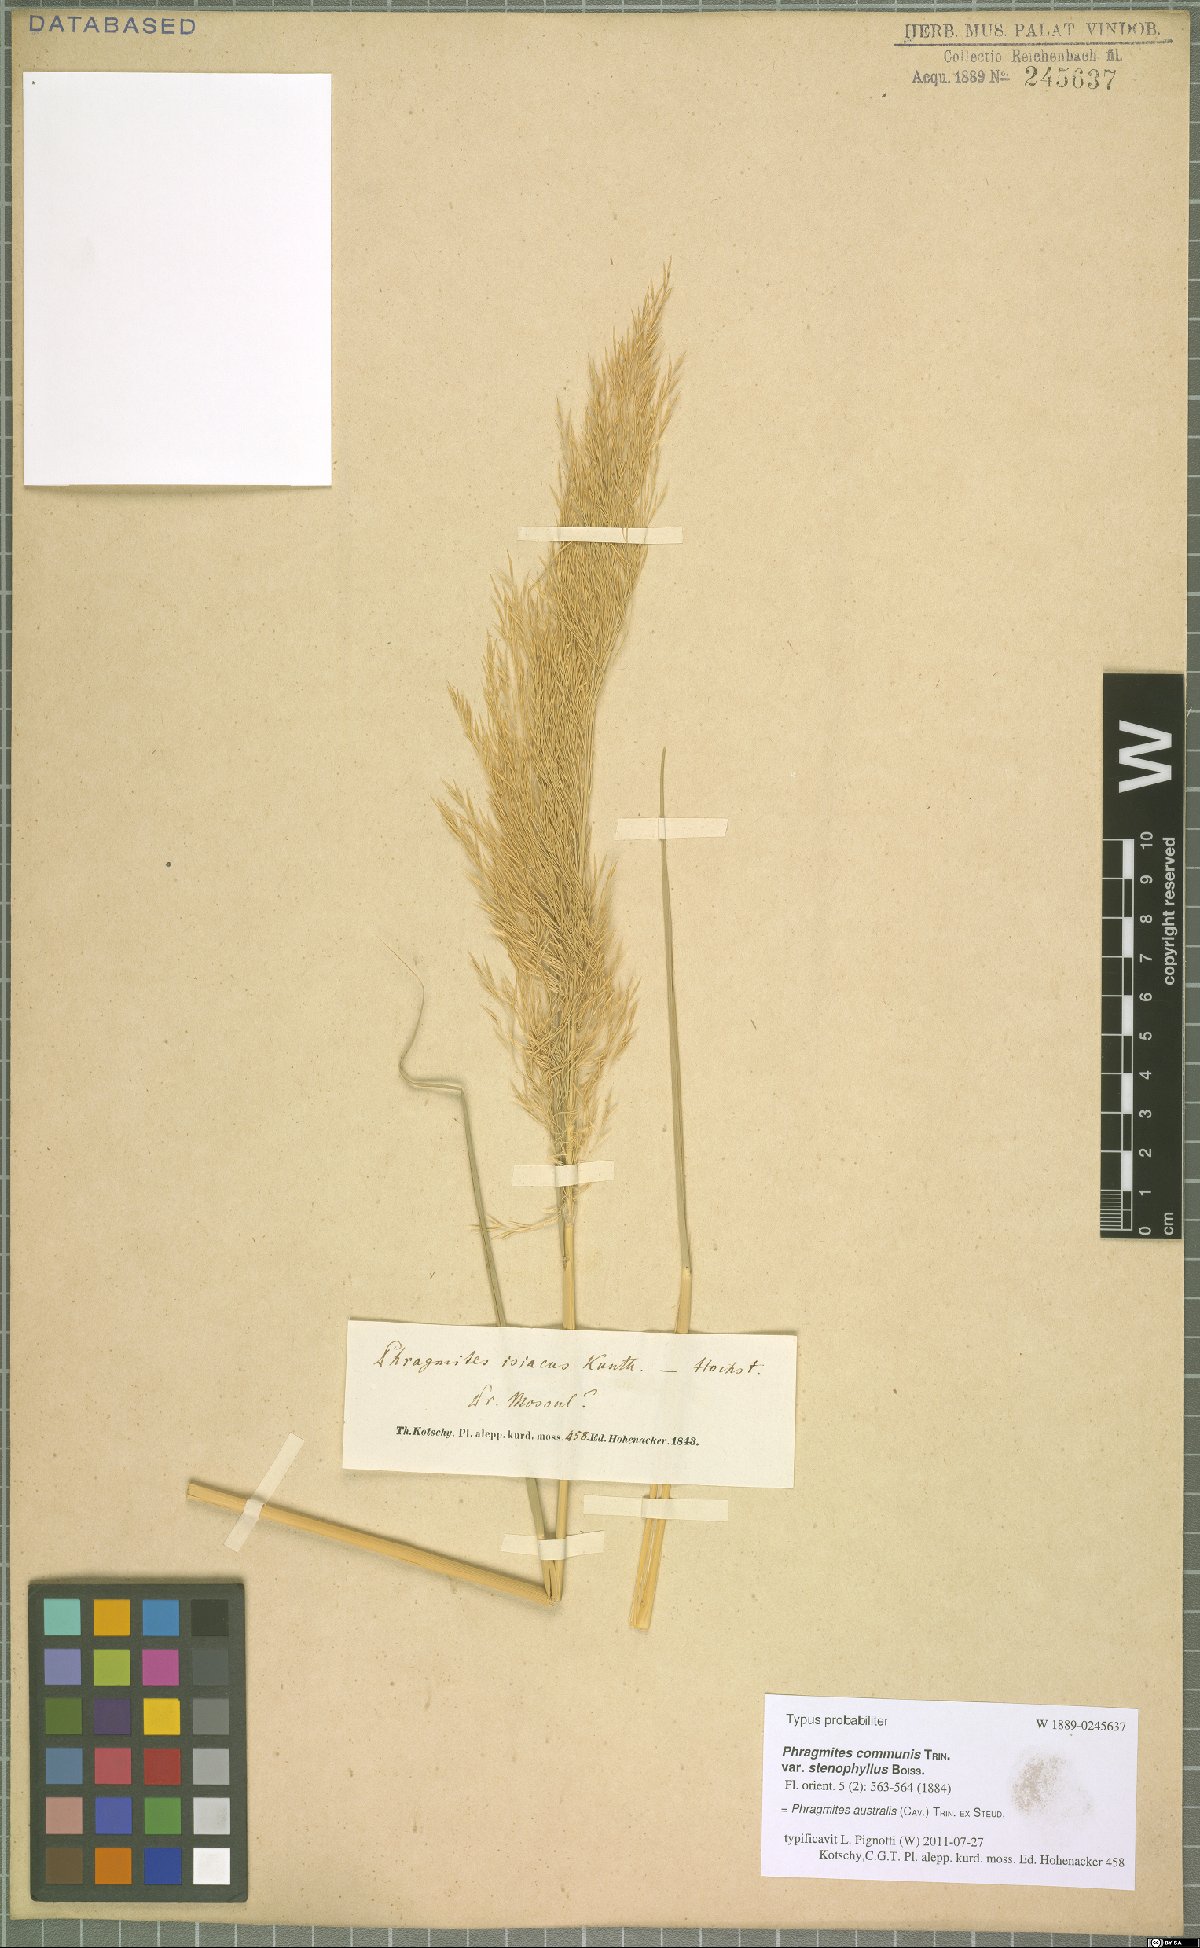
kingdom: Plantae
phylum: Tracheophyta
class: Liliopsida
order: Poales
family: Poaceae
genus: Phragmites
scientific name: Phragmites australis
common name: Common reed
